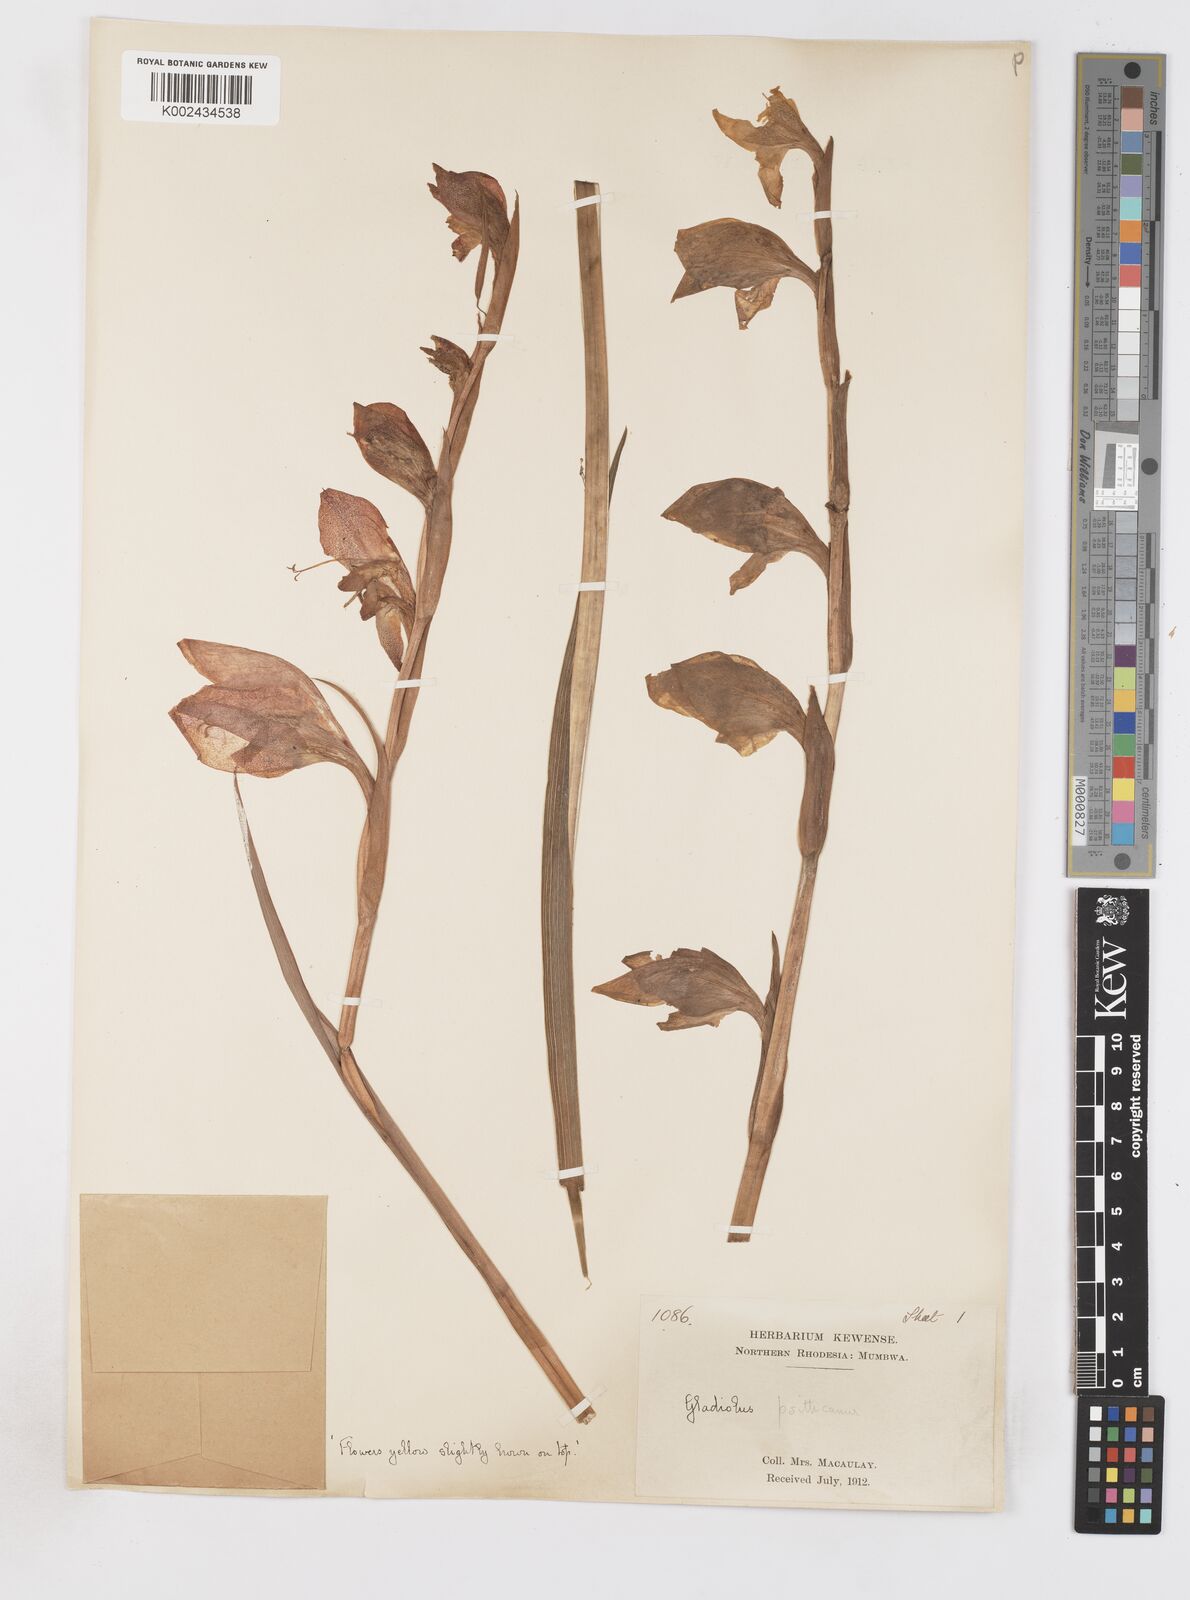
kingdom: Plantae
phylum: Tracheophyta
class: Liliopsida
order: Asparagales
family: Iridaceae
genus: Gladiolus
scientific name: Gladiolus dalenii
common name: Cornflag
